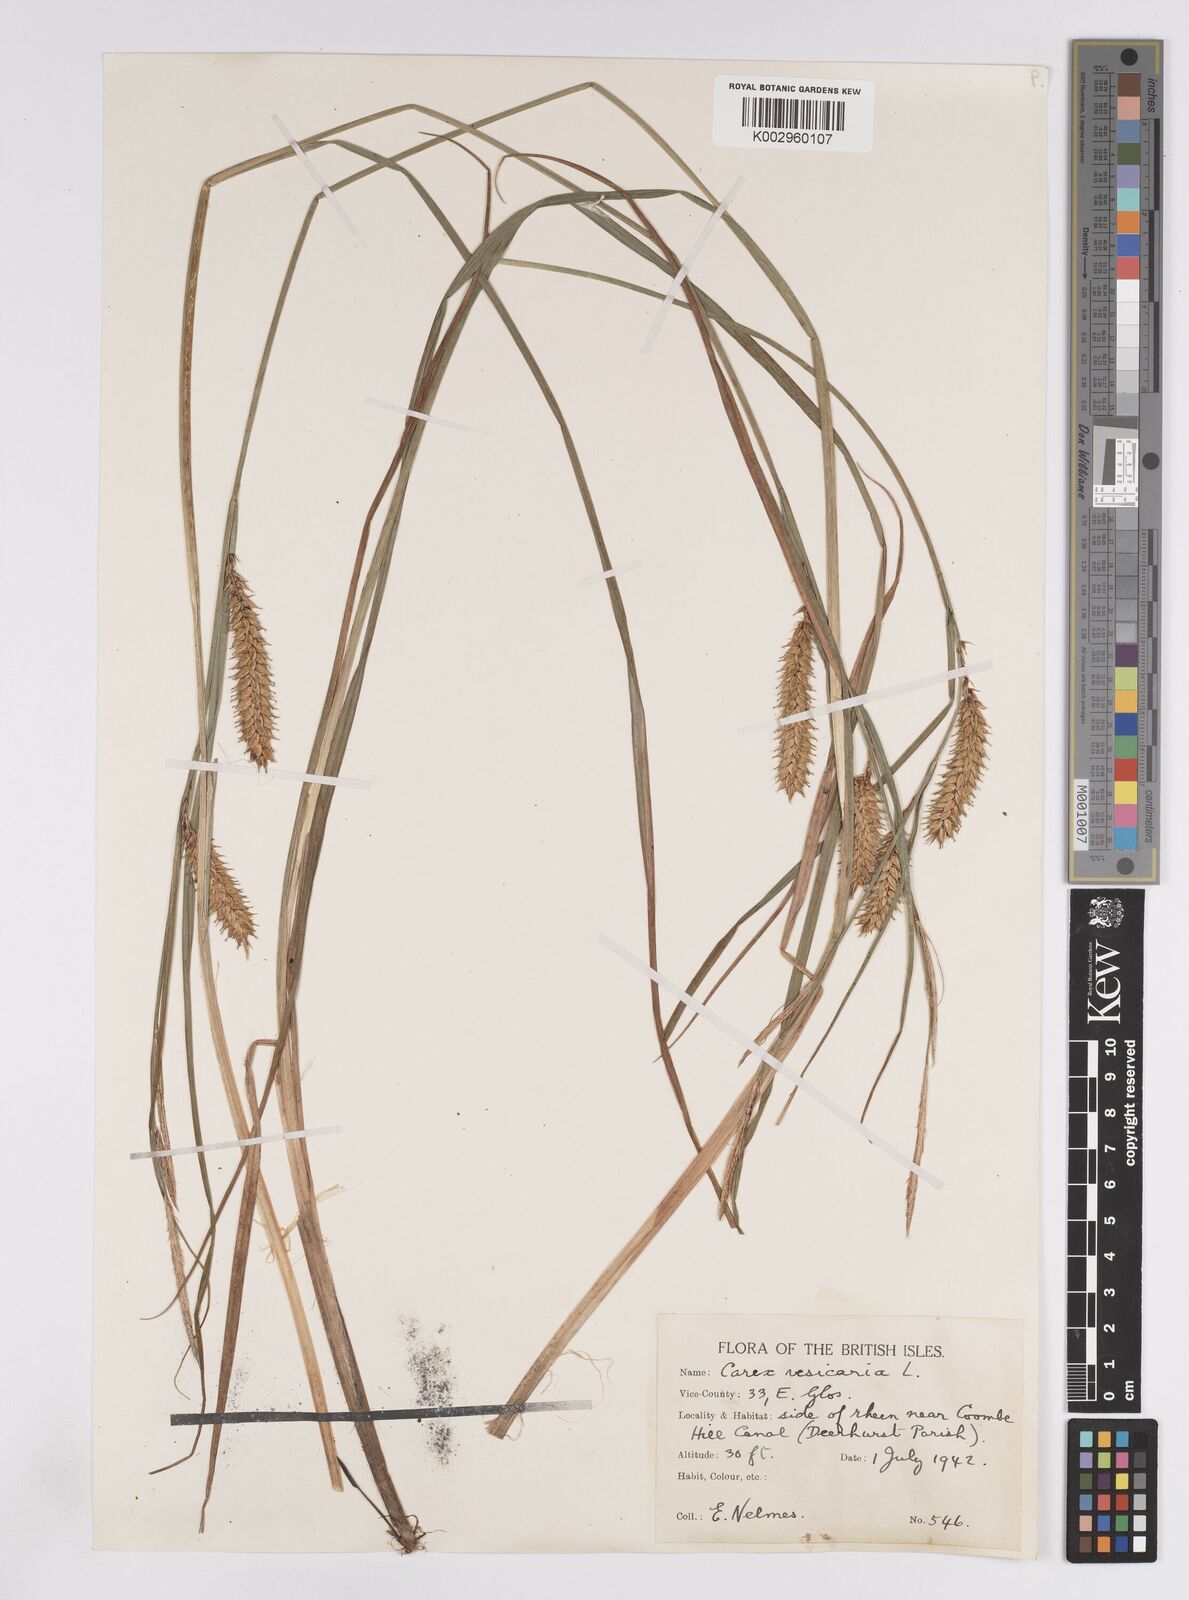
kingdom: Plantae
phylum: Tracheophyta
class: Liliopsida
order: Poales
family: Cyperaceae
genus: Carex
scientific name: Carex vesicaria
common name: Bladder-sedge
